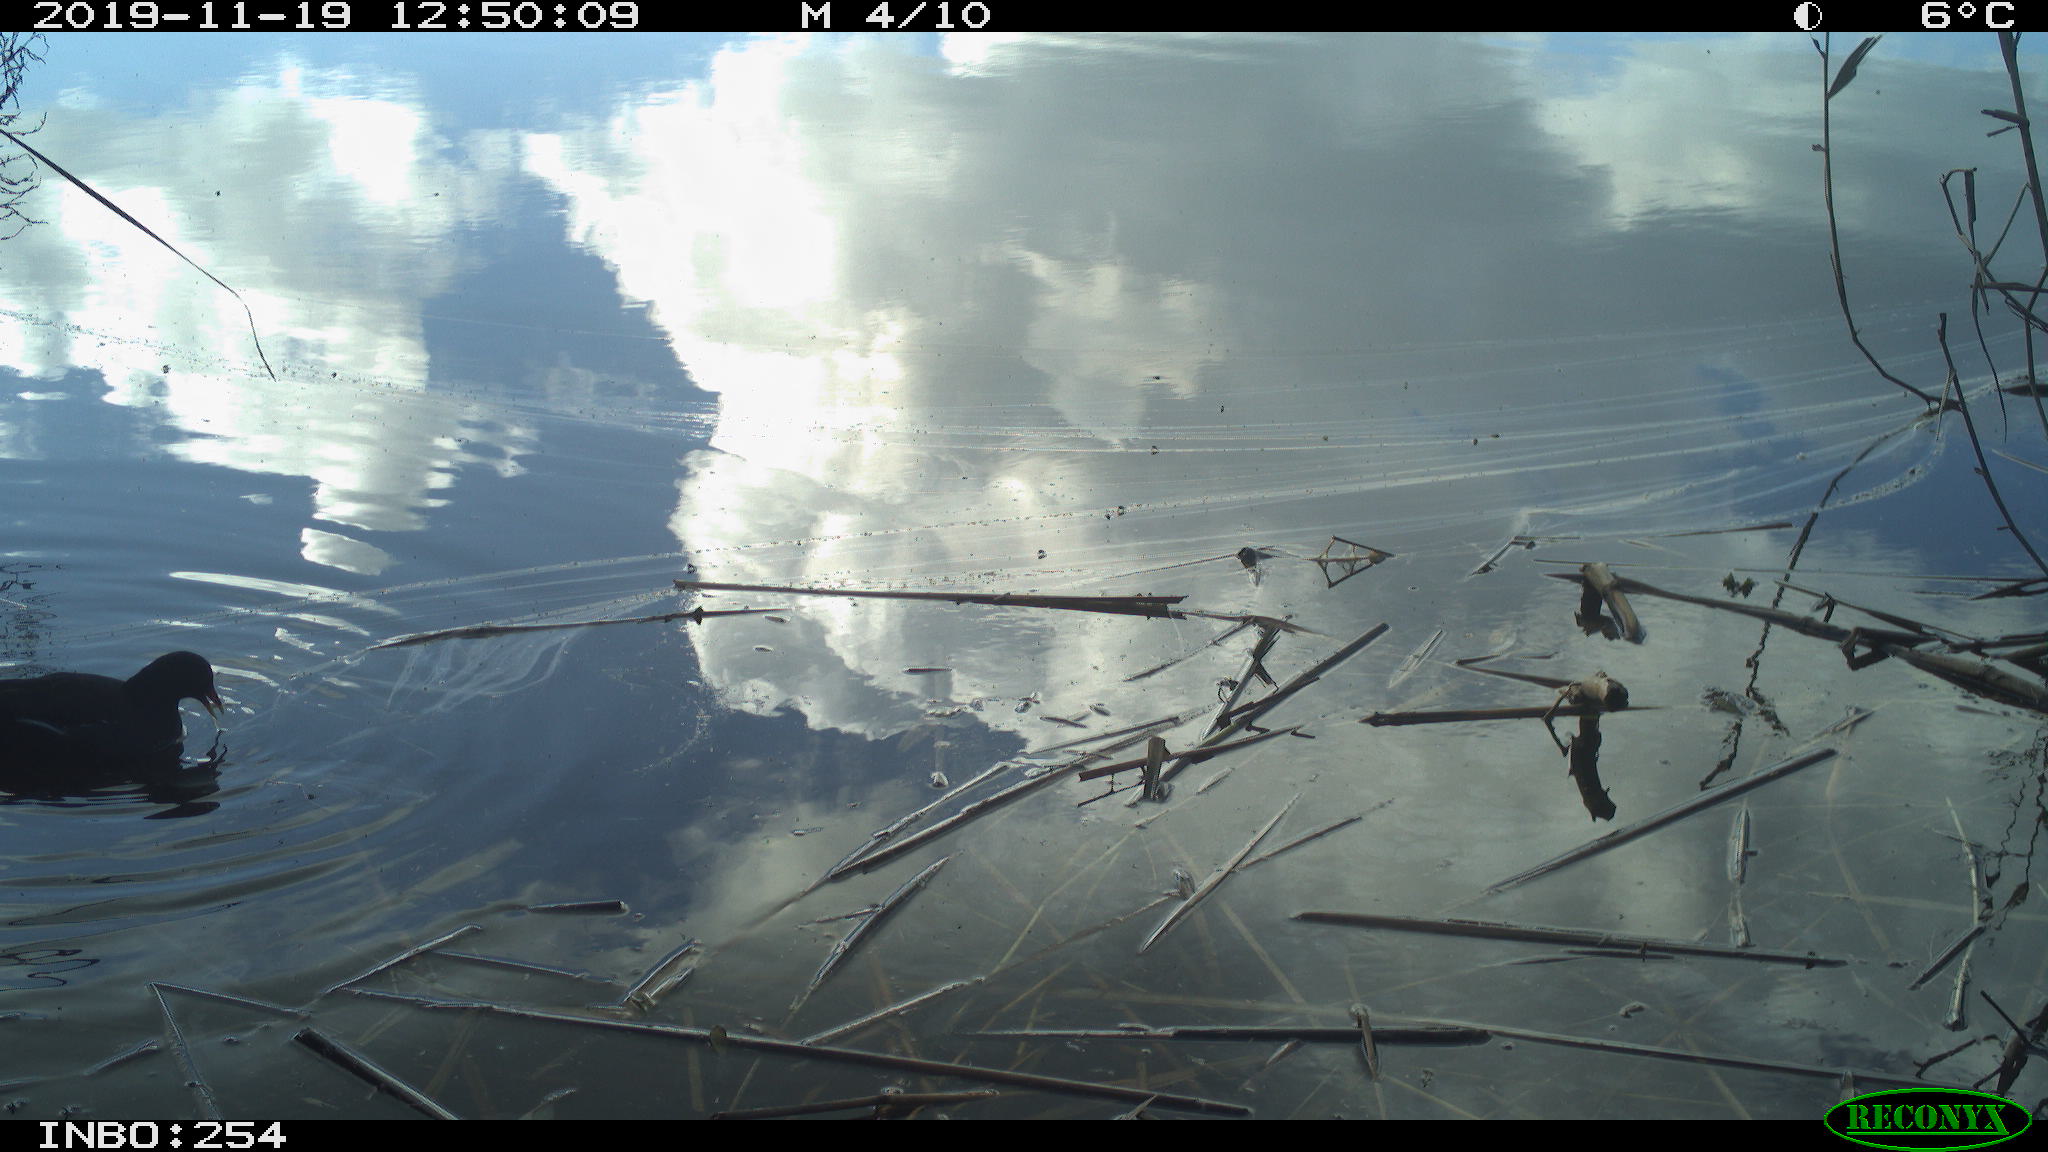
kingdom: Animalia
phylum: Chordata
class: Aves
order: Gruiformes
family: Rallidae
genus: Gallinula
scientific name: Gallinula chloropus
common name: Common moorhen
